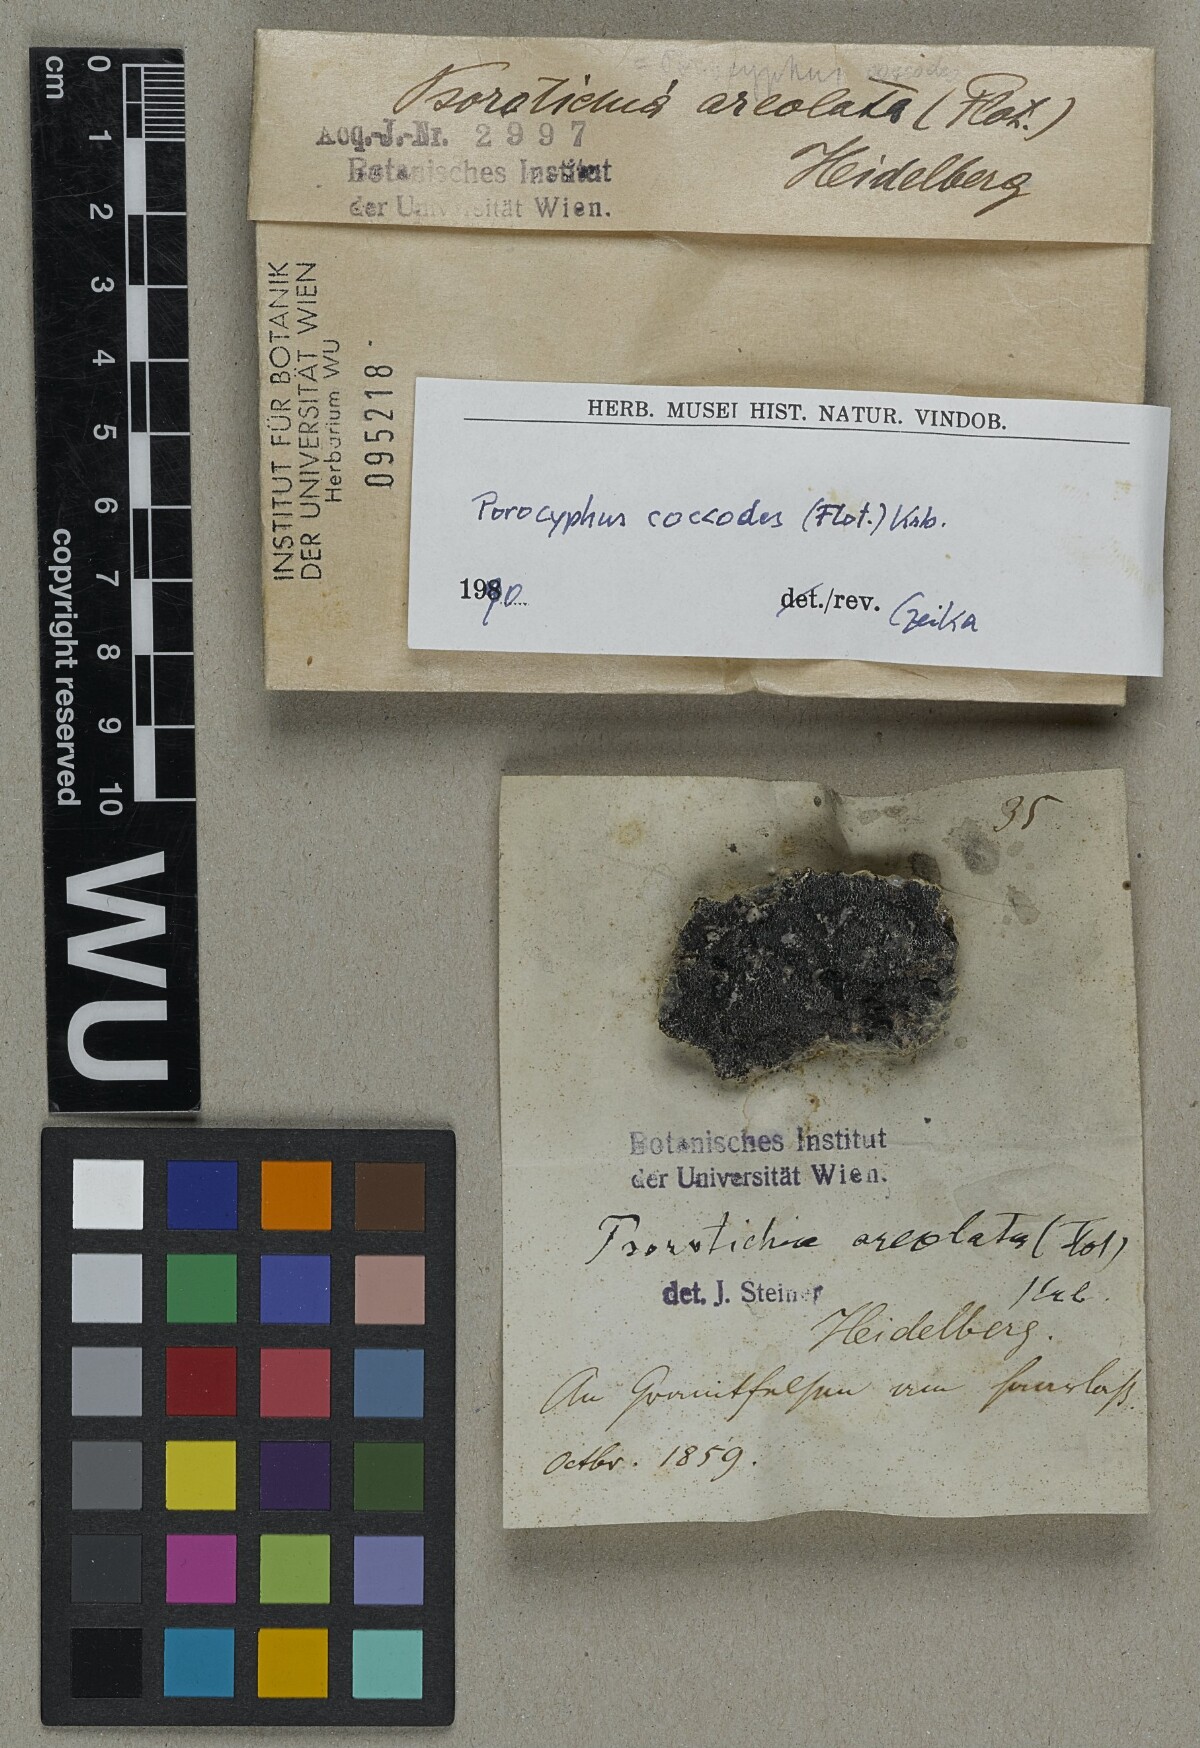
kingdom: Fungi
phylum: Ascomycota
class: Lichinomycetes
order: Lichinales
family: Lichinaceae
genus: Porocyphus
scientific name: Porocyphus coccodes
